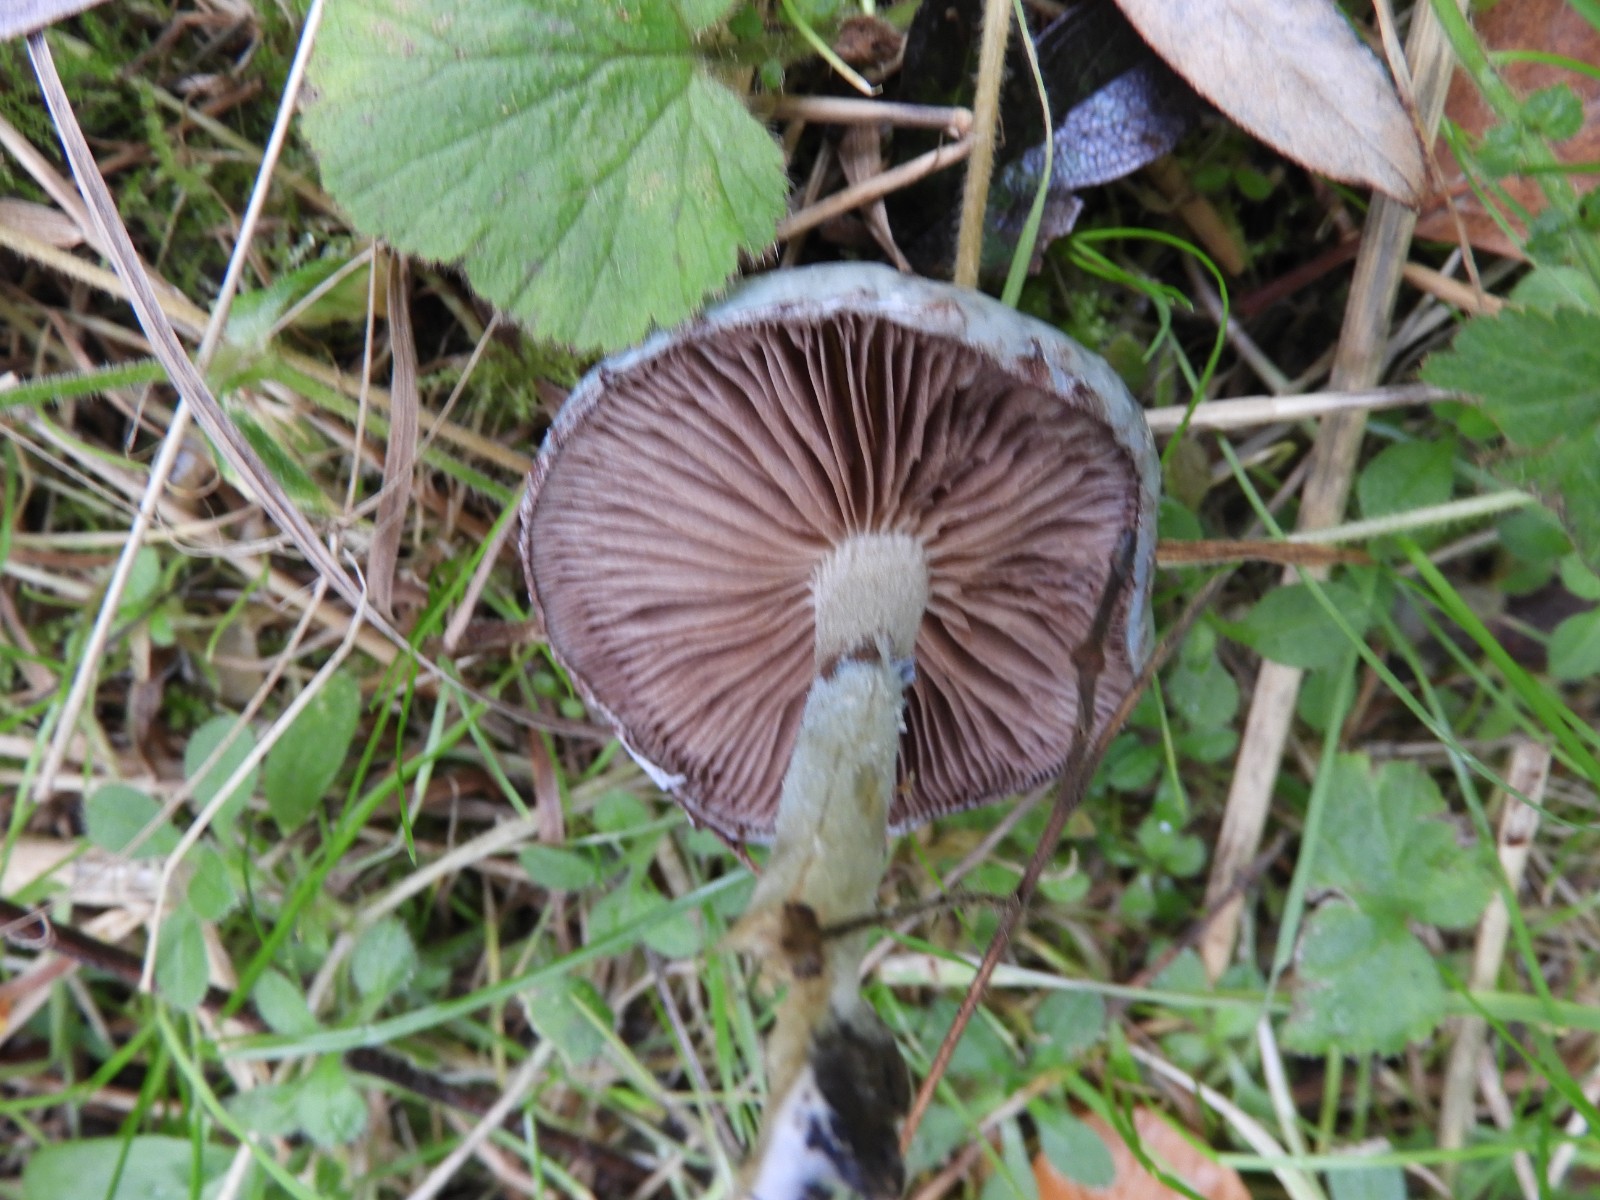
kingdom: Fungi
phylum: Basidiomycota
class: Agaricomycetes
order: Agaricales
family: Strophariaceae
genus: Stropharia
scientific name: Stropharia cyanea
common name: blågrøn bredblad
